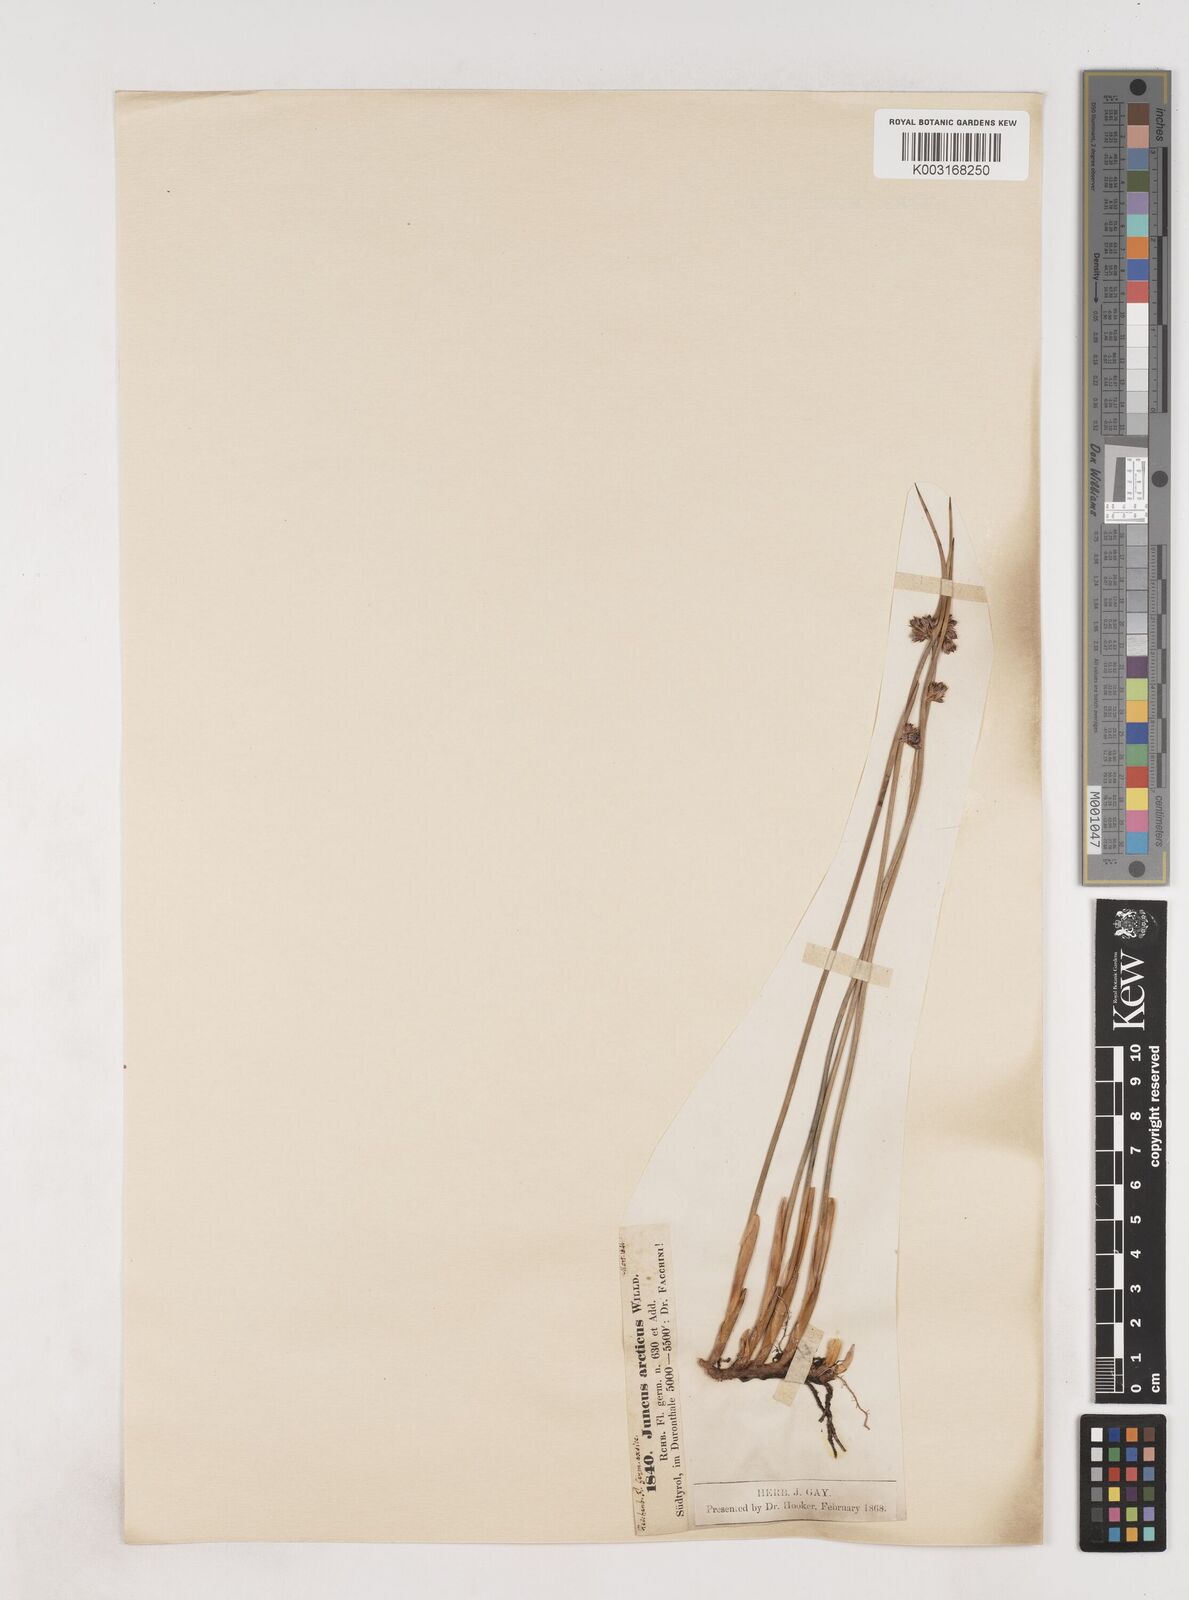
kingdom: Plantae
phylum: Tracheophyta
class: Liliopsida
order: Poales
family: Juncaceae
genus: Juncus
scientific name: Juncus arcticus
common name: Arctic rush
